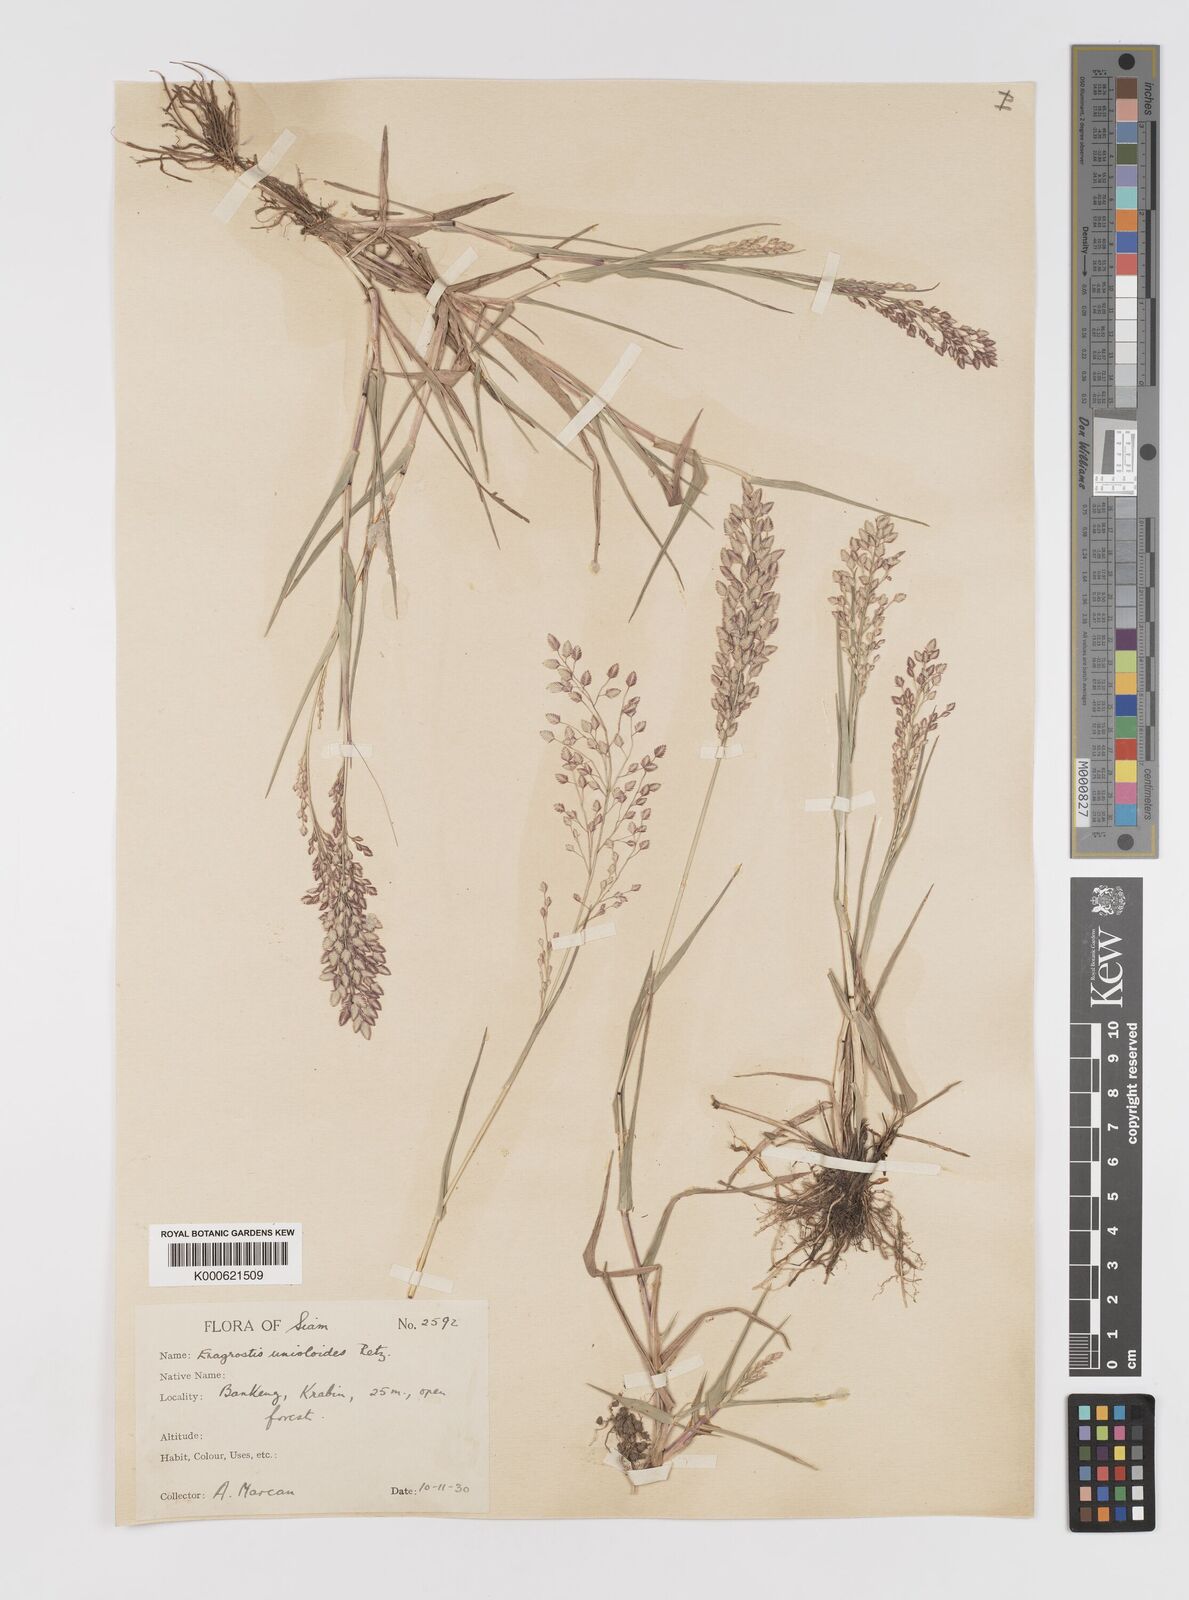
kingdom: Plantae
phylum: Tracheophyta
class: Liliopsida
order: Poales
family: Poaceae
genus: Eragrostis
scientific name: Eragrostis unioloides
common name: Chinese lovegrass
